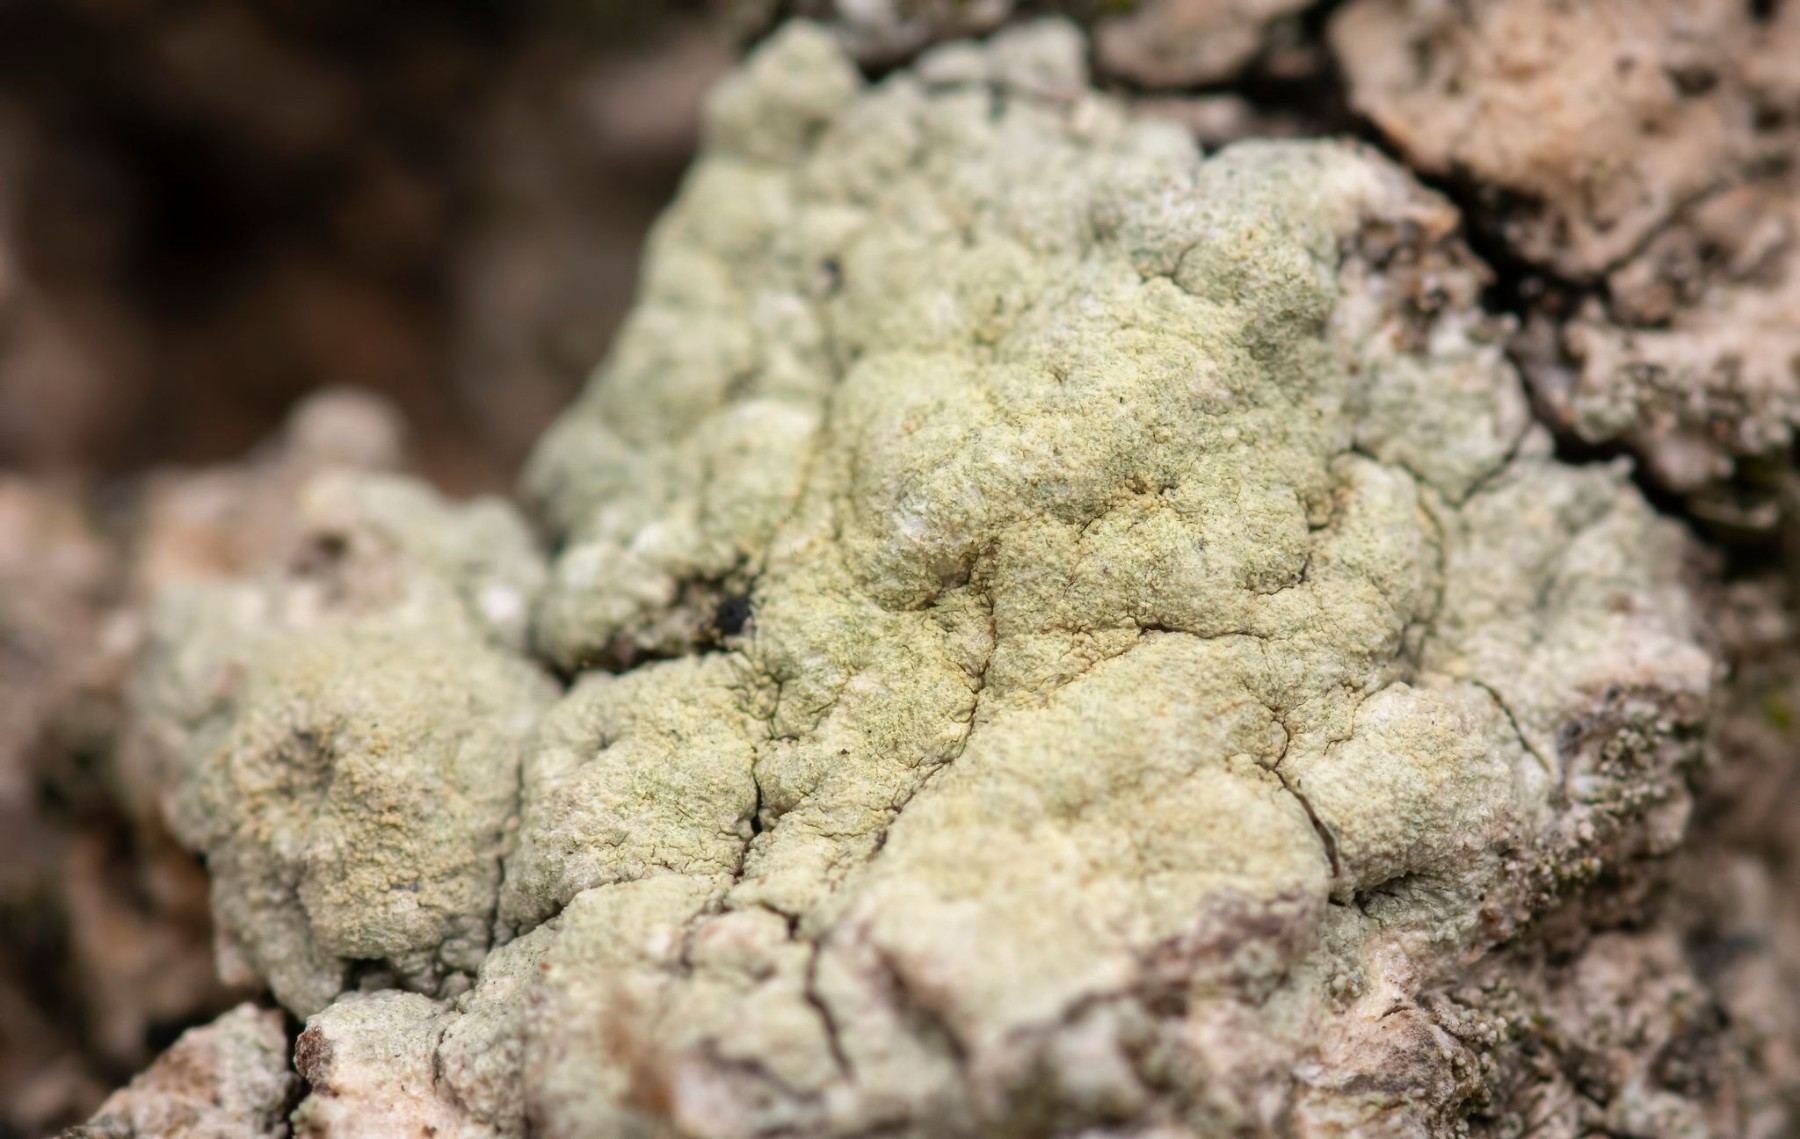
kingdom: Fungi
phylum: Ascomycota
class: Lecanoromycetes
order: Pertusariales
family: Pertusariaceae
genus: Pertusaria
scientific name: Pertusaria flavida
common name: gul prikvortelav
